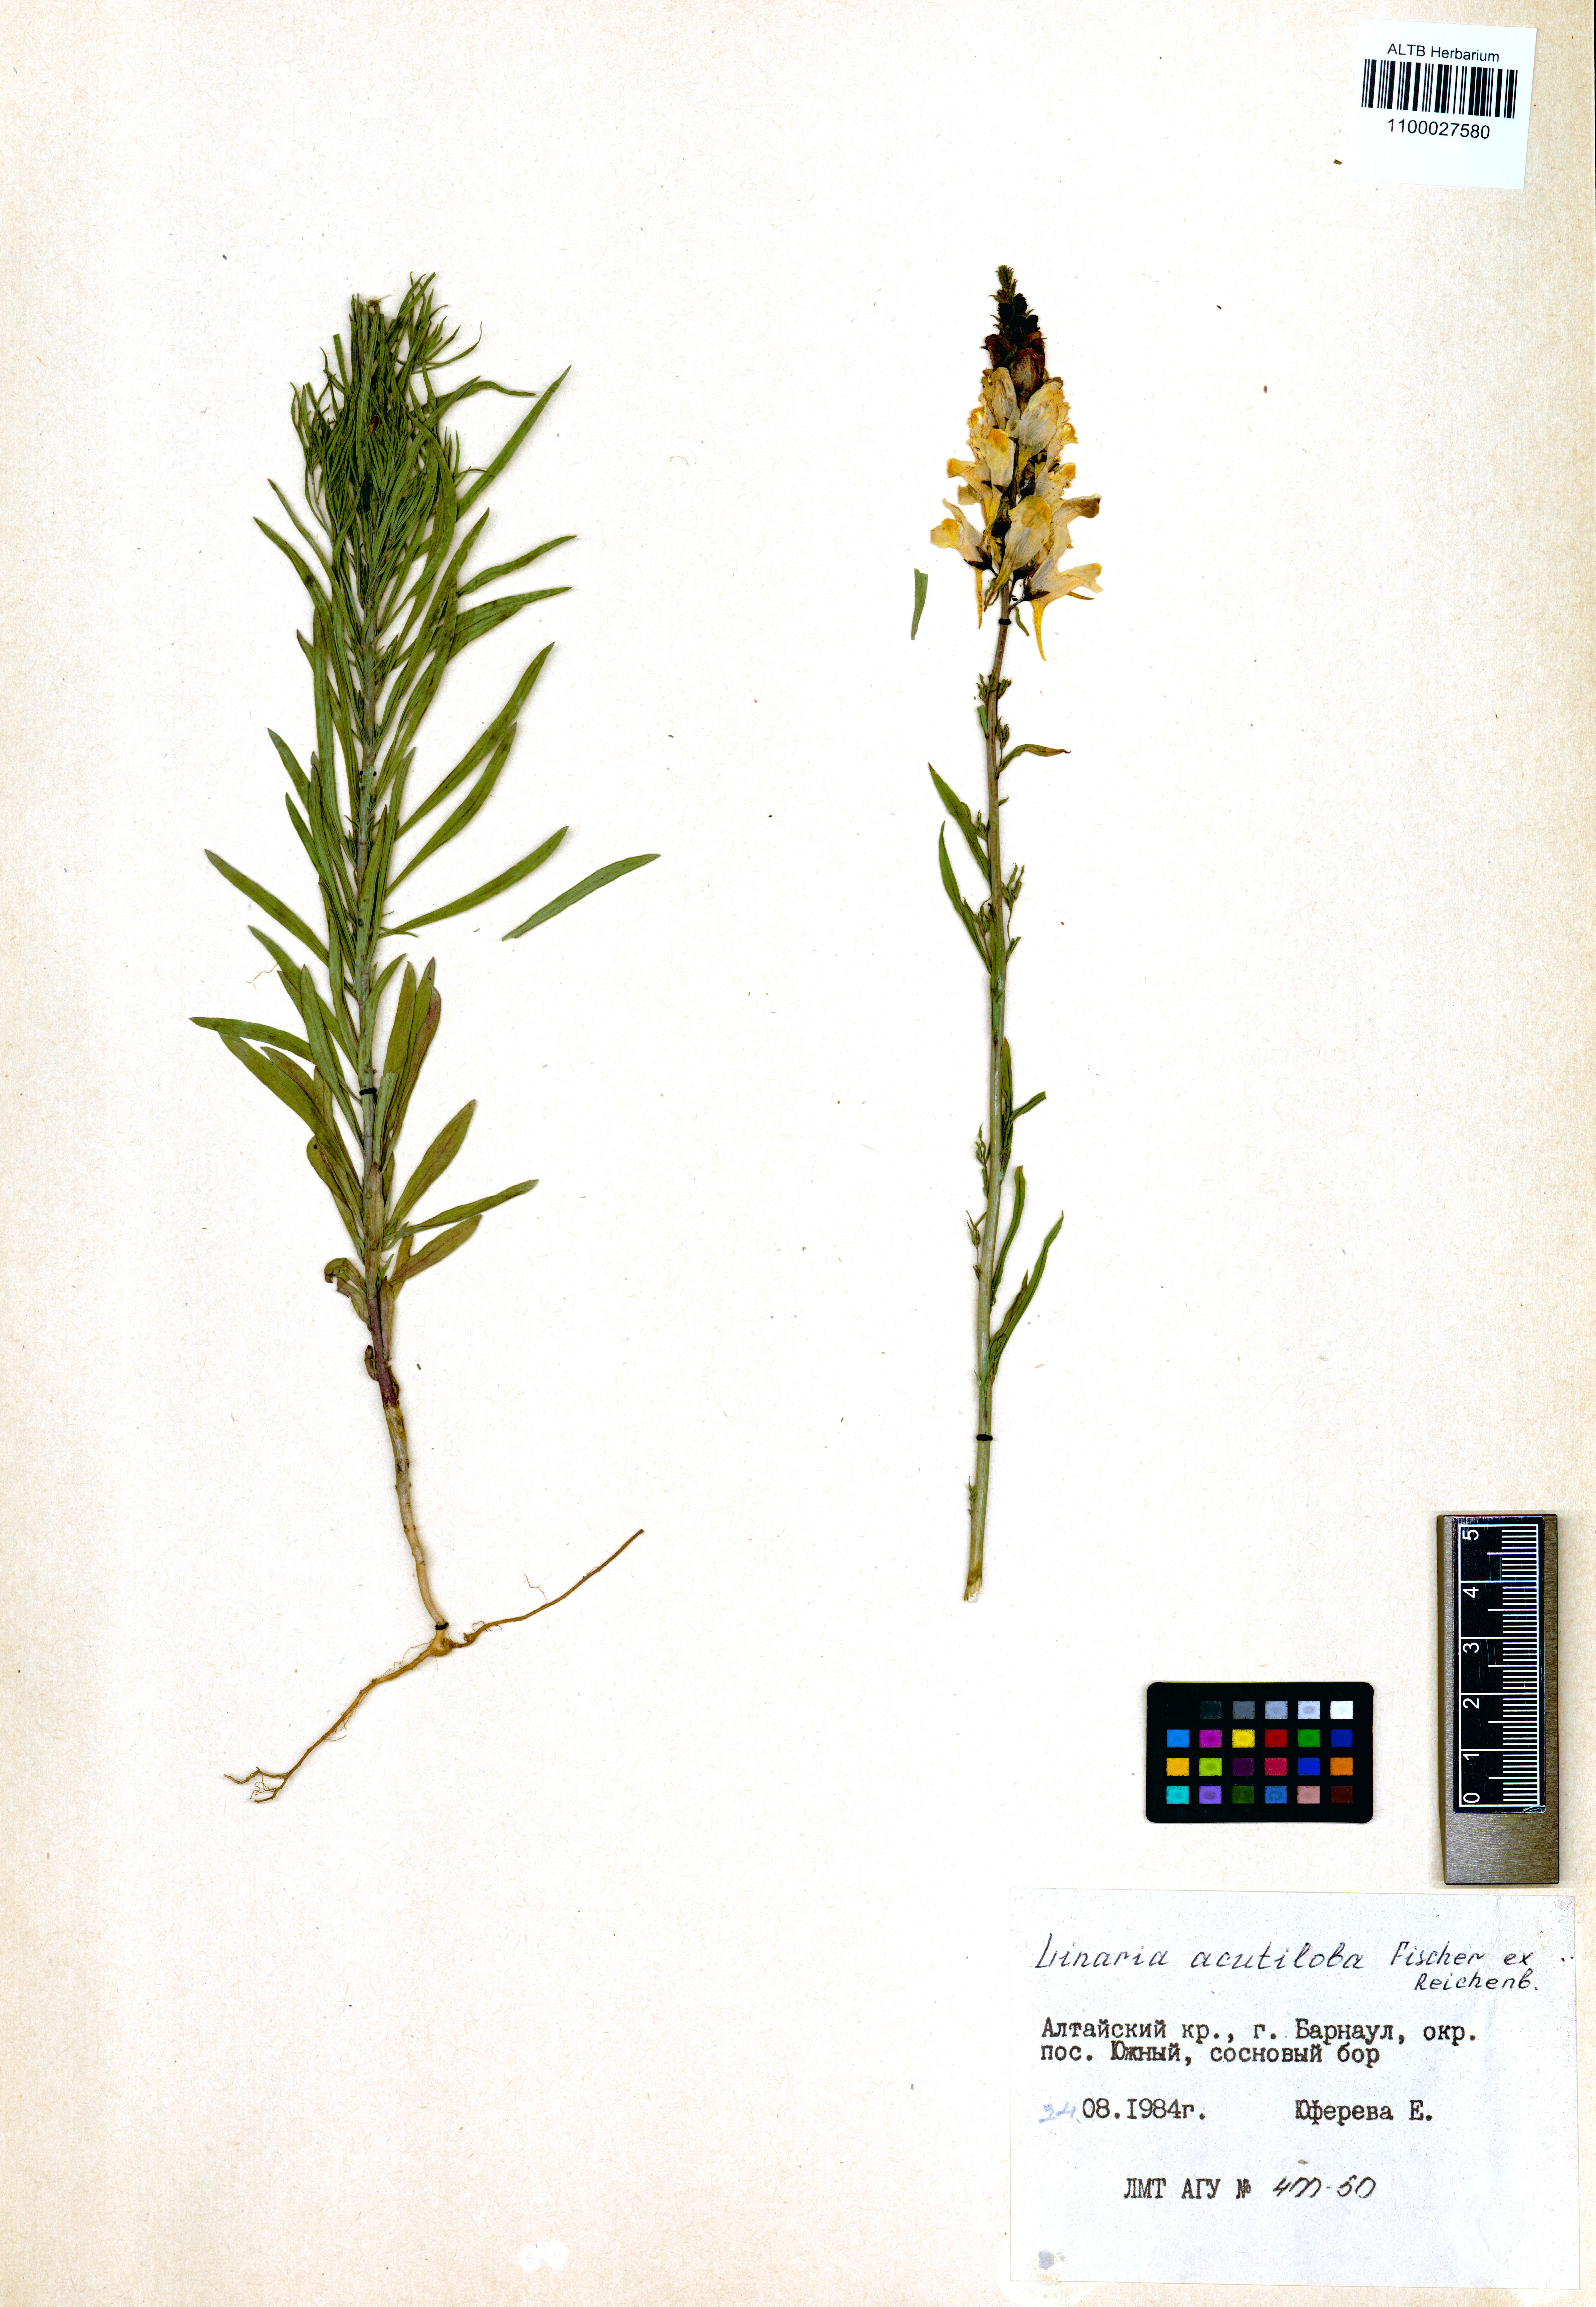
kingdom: Plantae
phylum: Tracheophyta
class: Magnoliopsida
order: Lamiales
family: Plantaginaceae
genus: Linaria
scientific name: Linaria acutiloba
